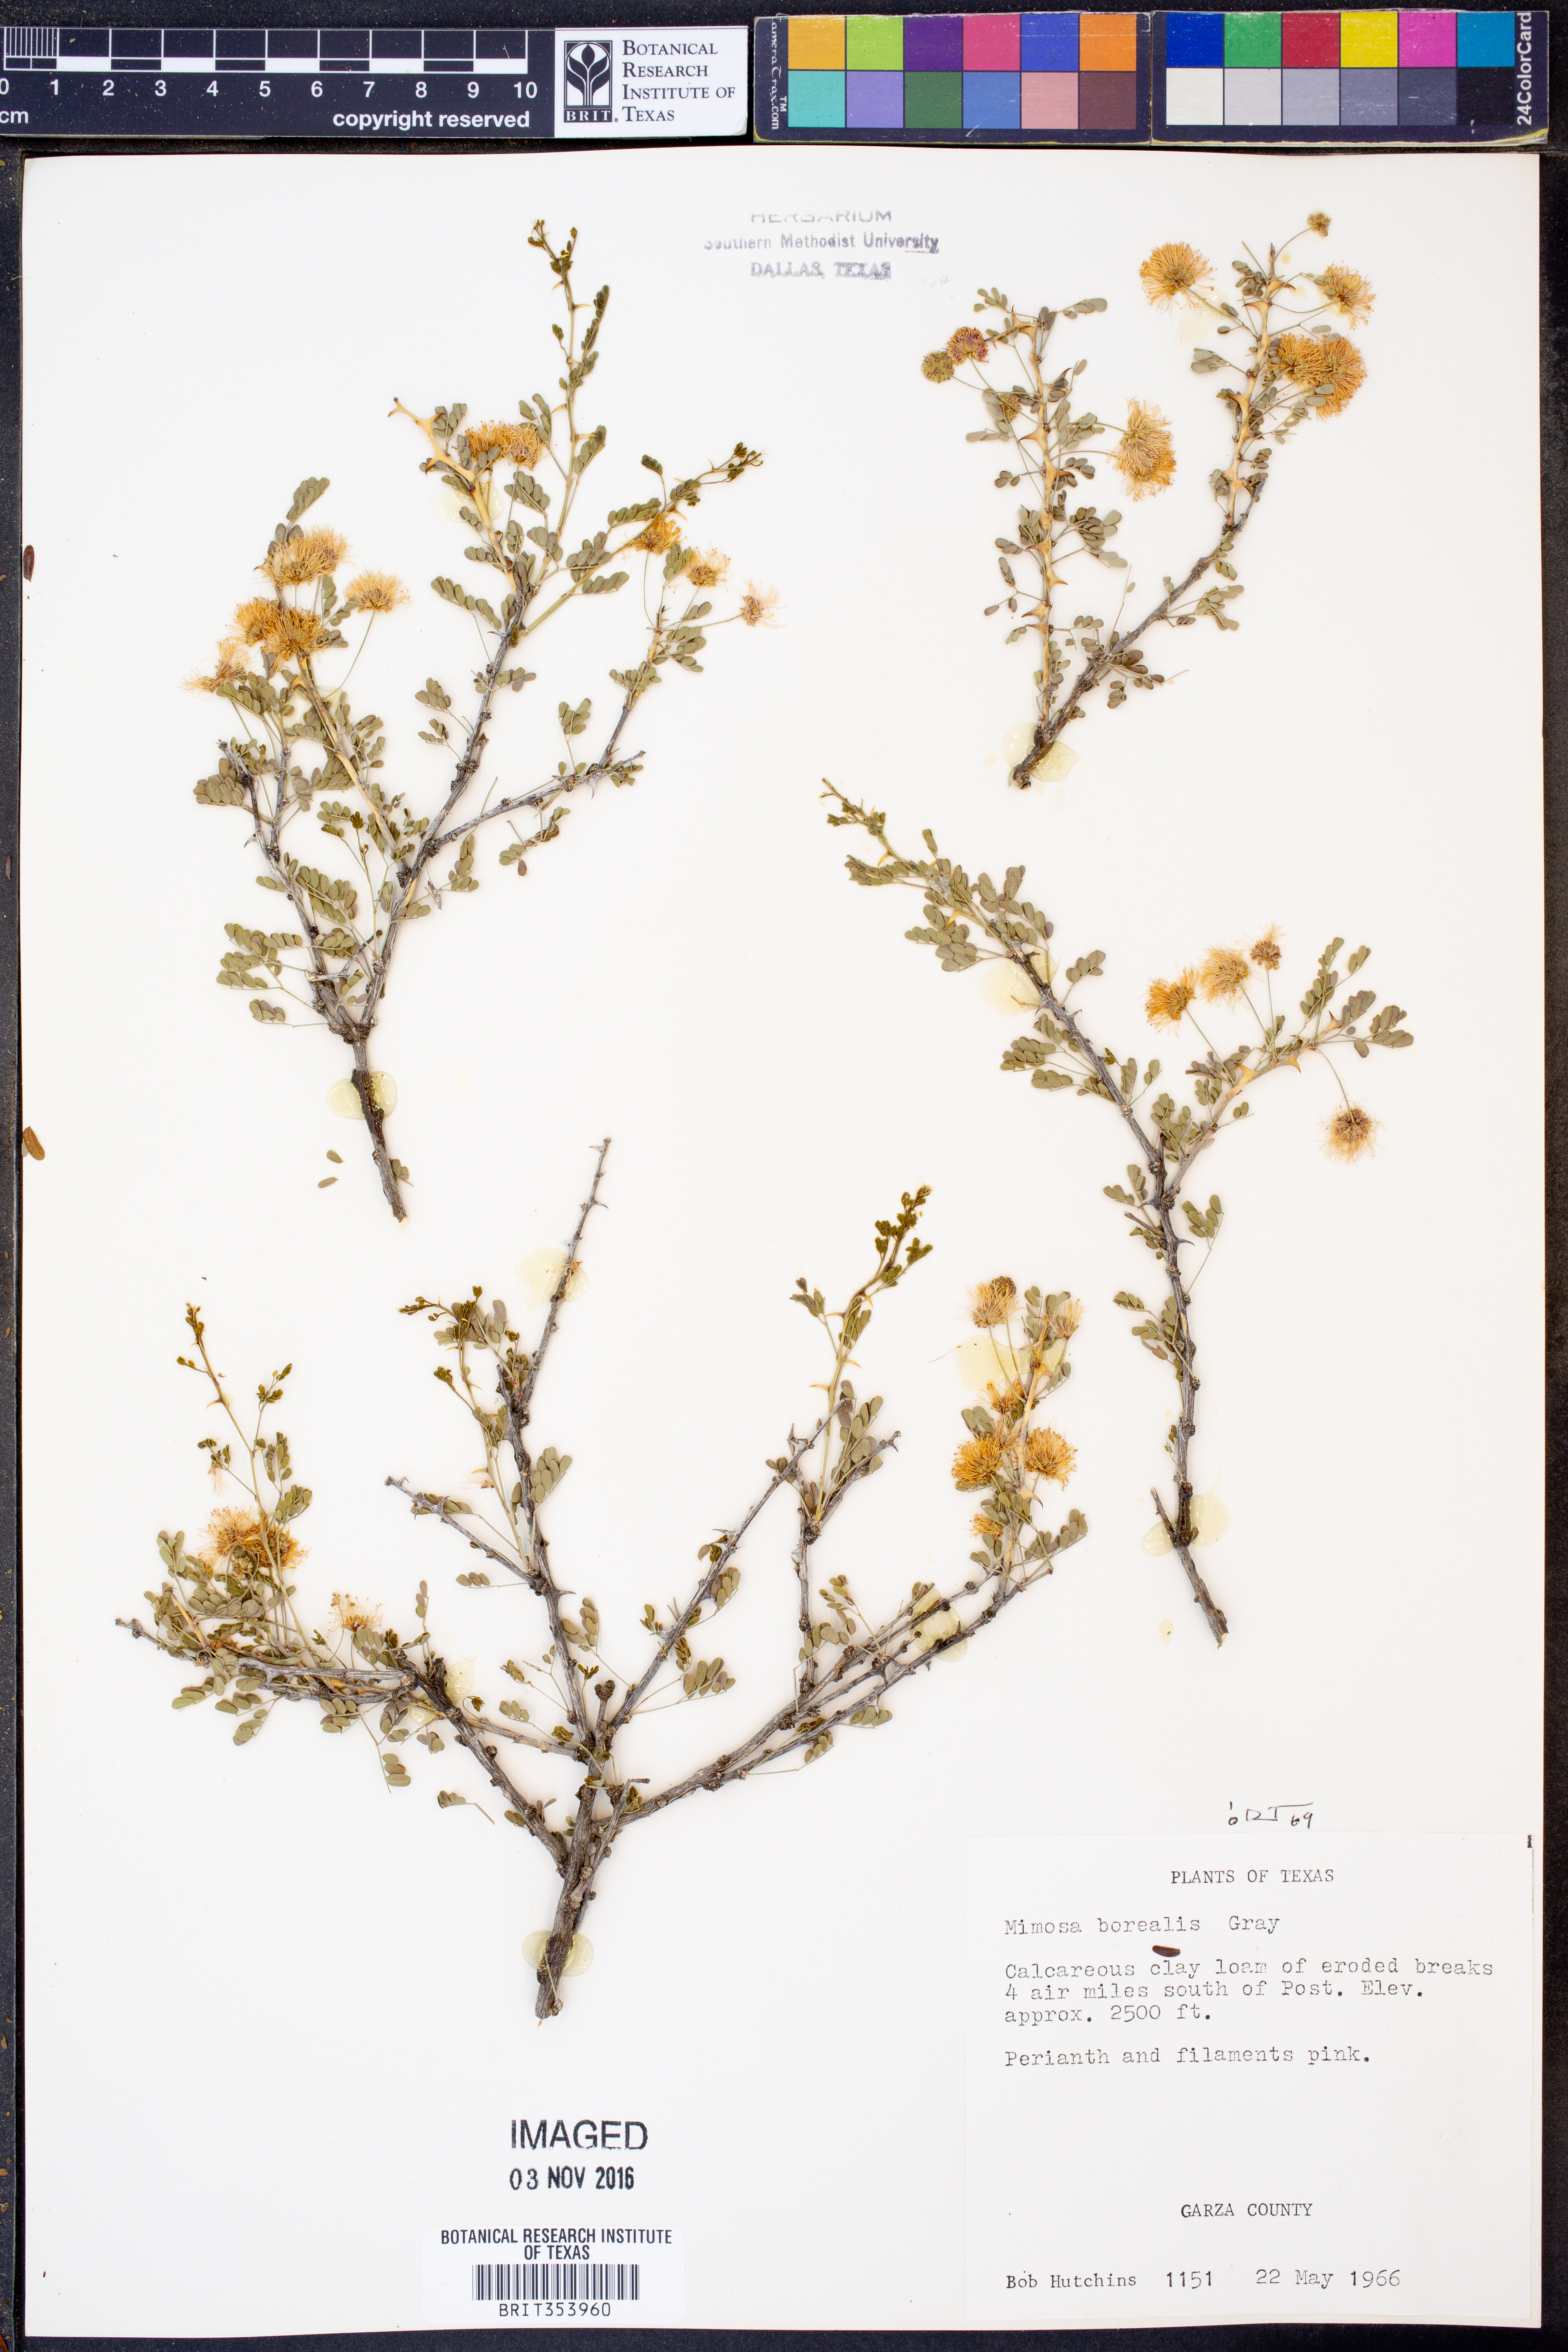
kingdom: Plantae
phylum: Tracheophyta
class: Magnoliopsida
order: Fabales
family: Fabaceae
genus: Mimosa
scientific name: Mimosa borealis
